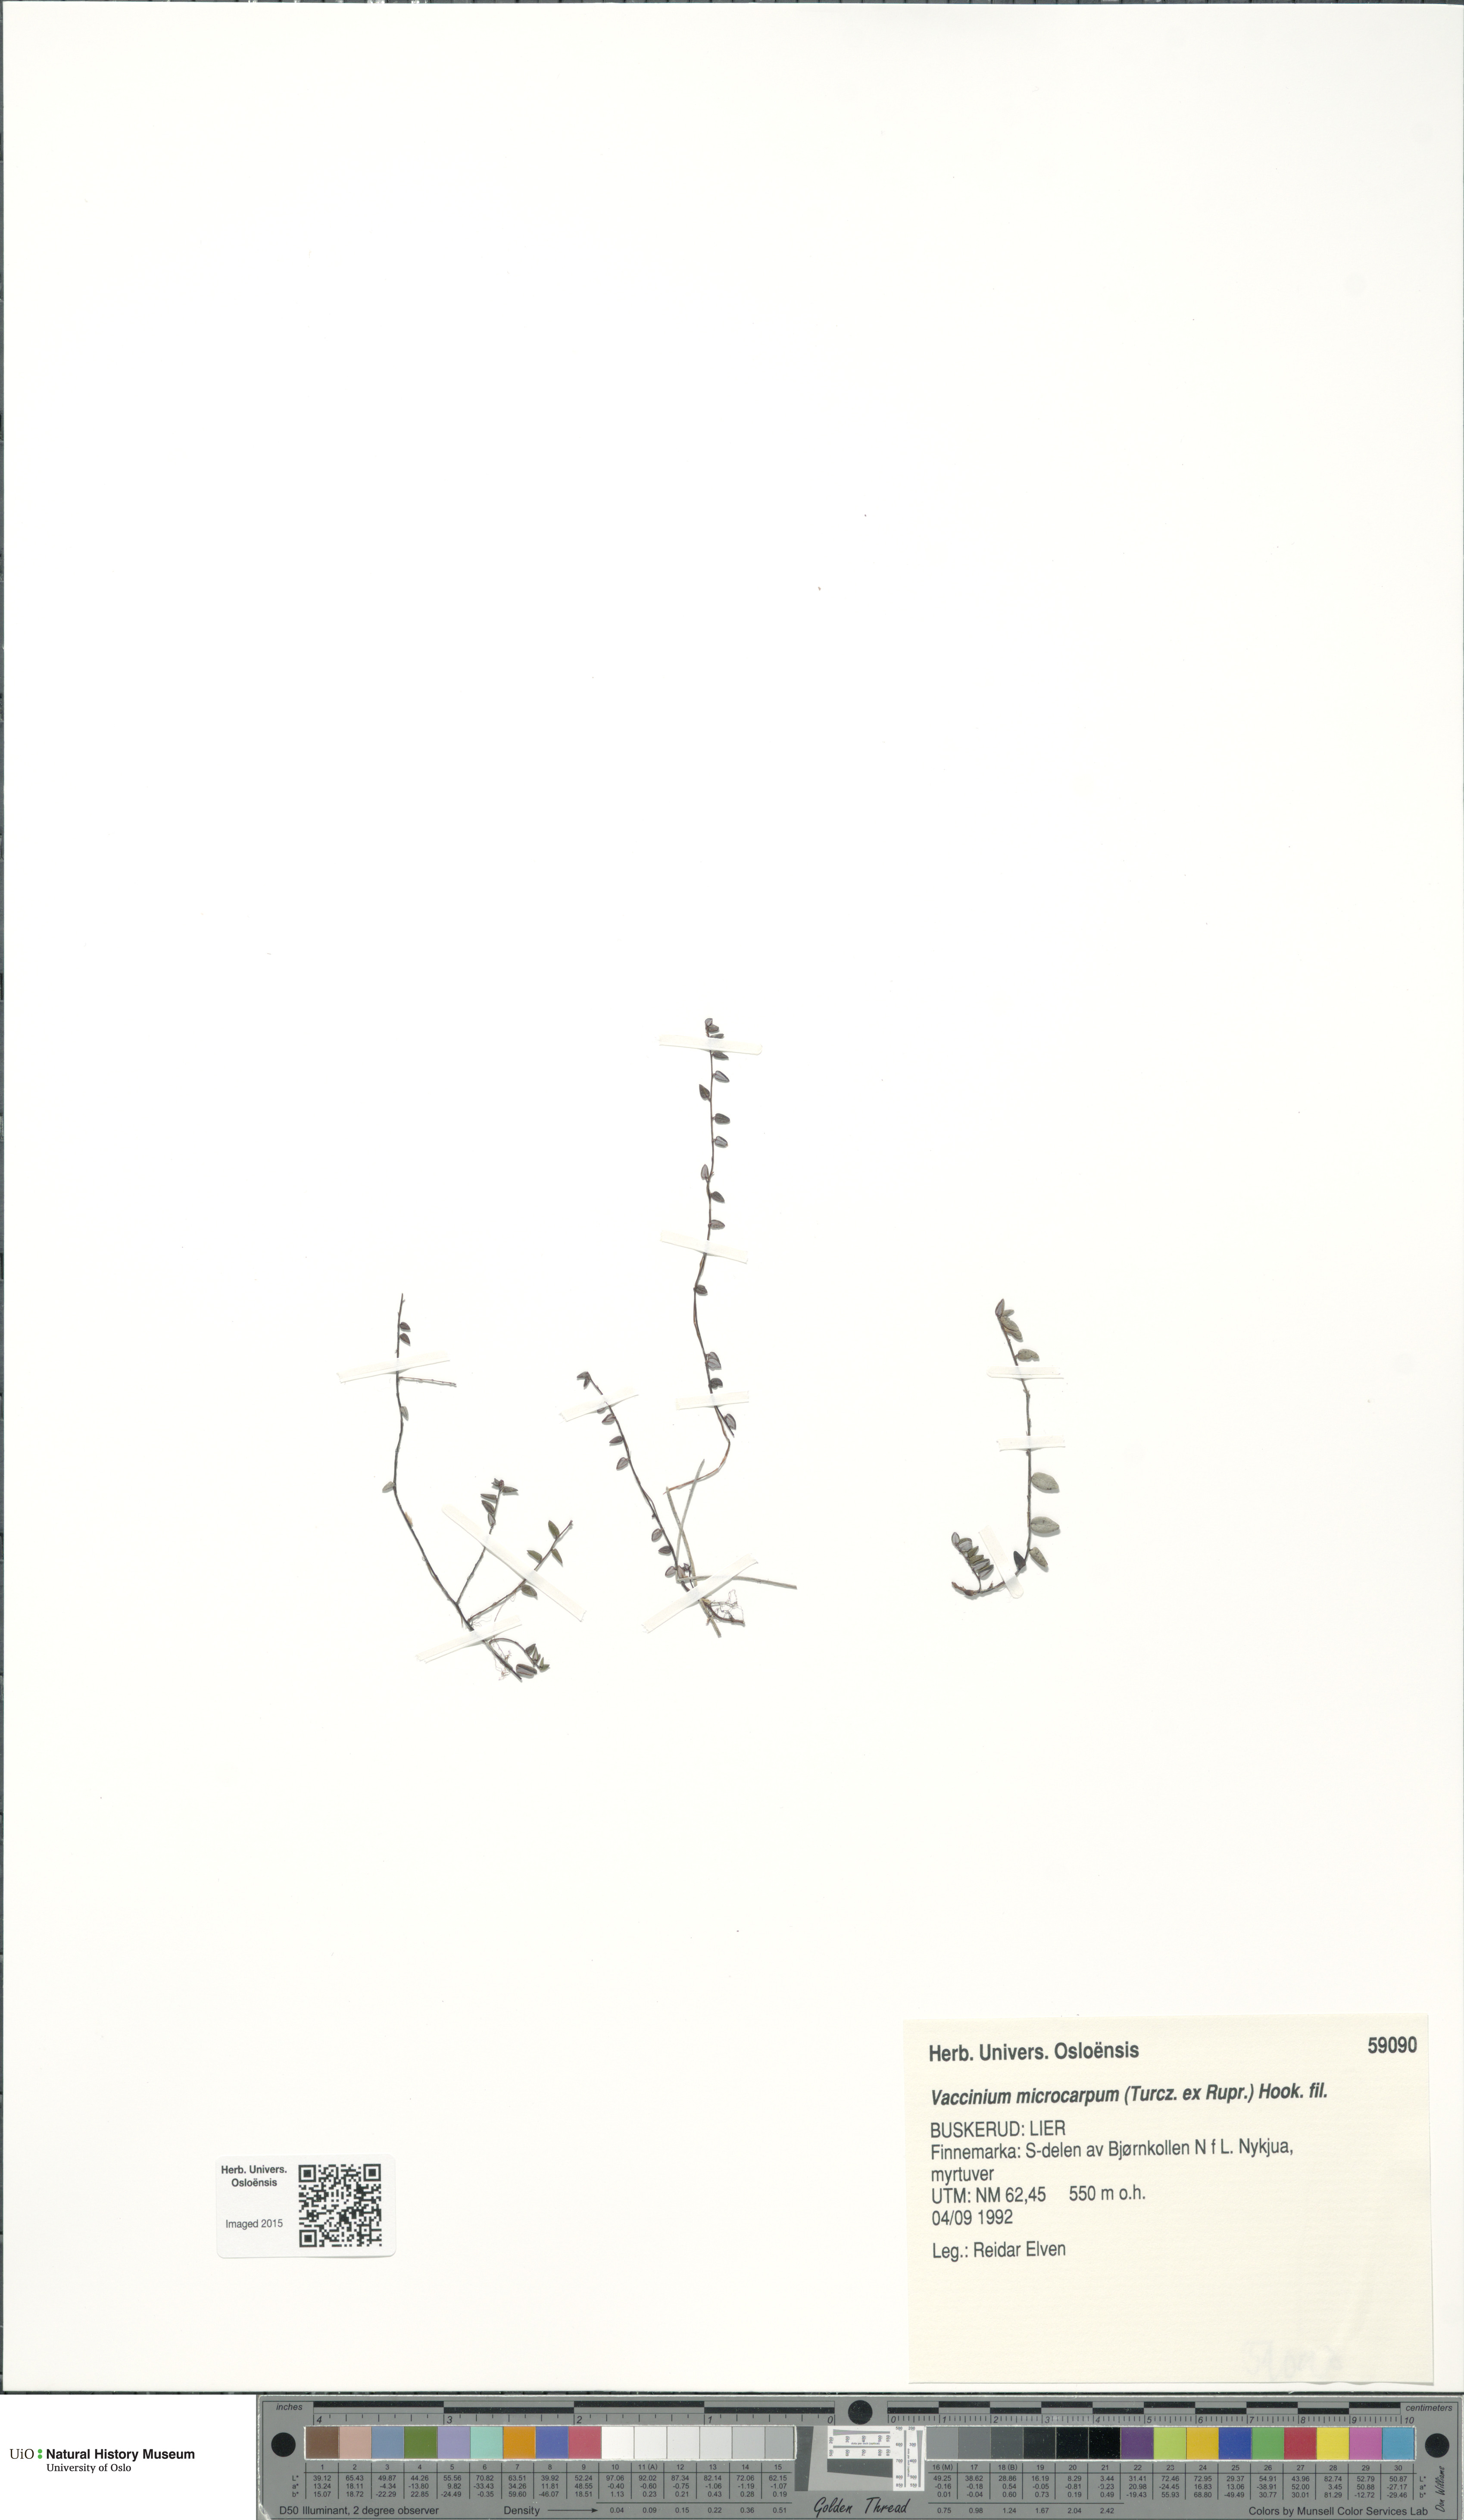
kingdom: Plantae
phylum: Tracheophyta
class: Magnoliopsida
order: Ericales
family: Ericaceae
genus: Vaccinium
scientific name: Vaccinium microcarpum
